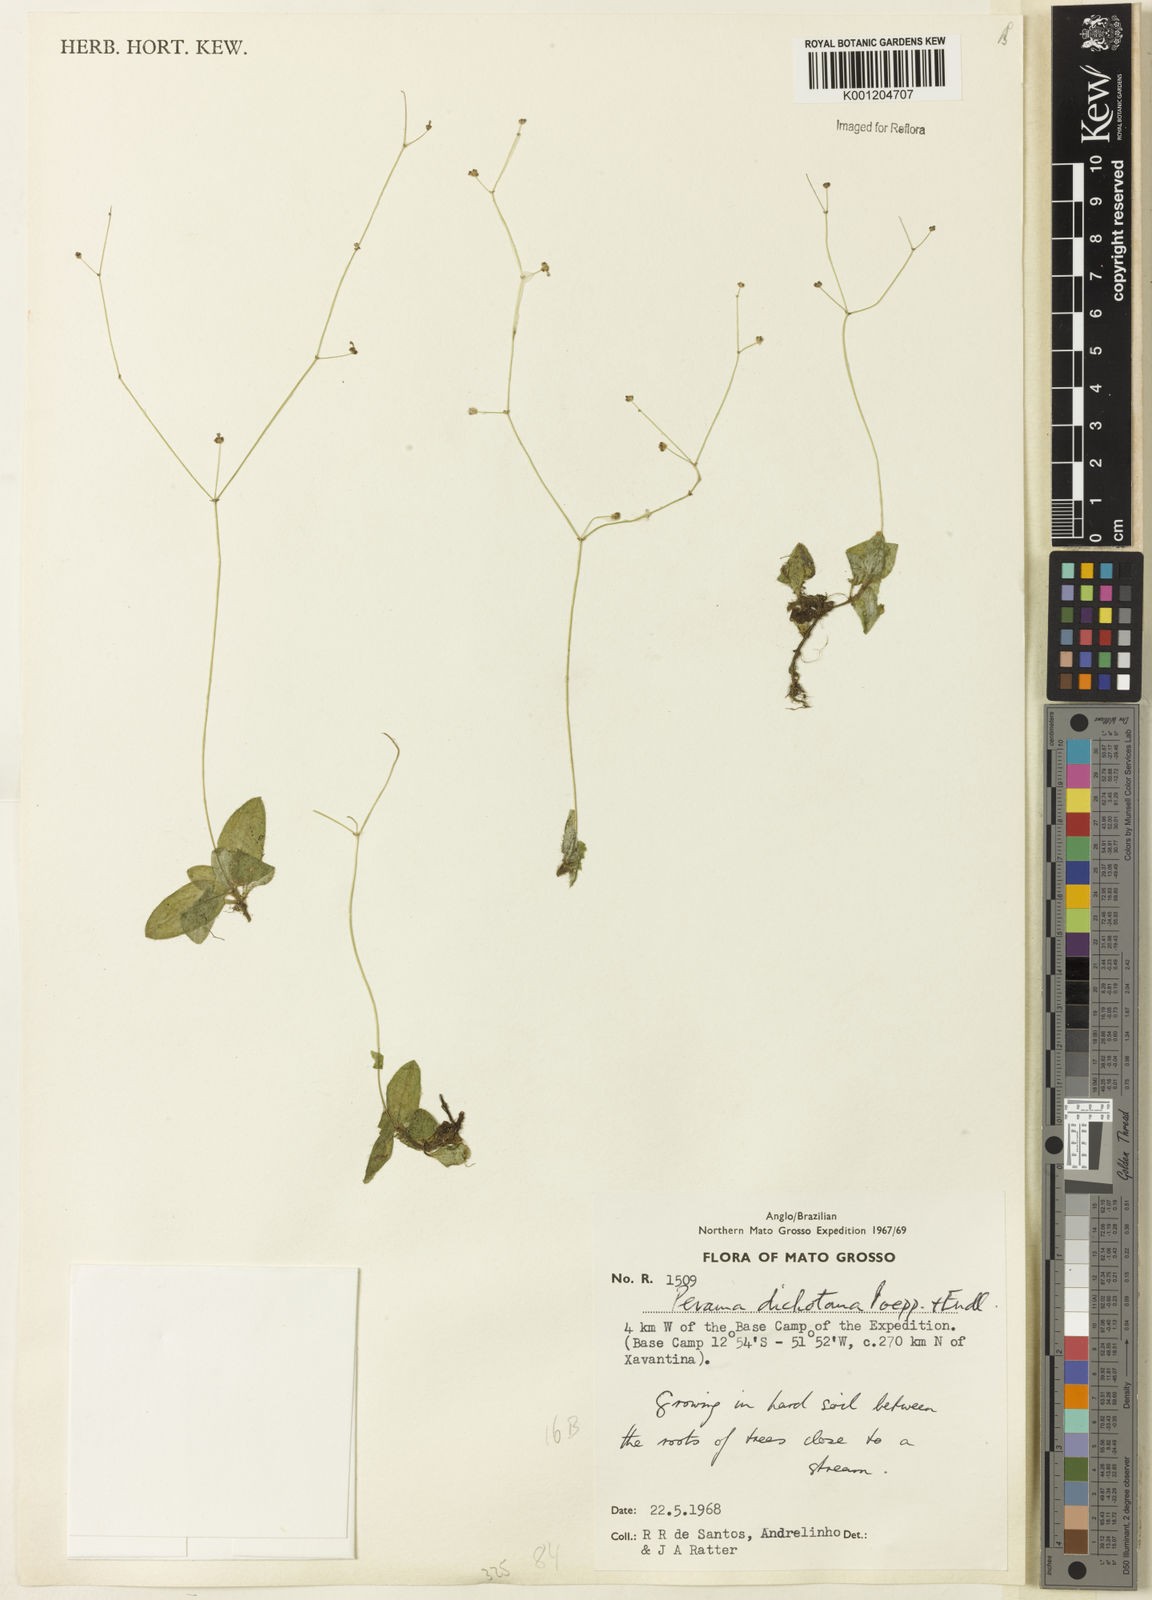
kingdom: Plantae
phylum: Tracheophyta
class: Magnoliopsida
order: Gentianales
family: Rubiaceae
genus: Perama
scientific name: Perama dichotoma
